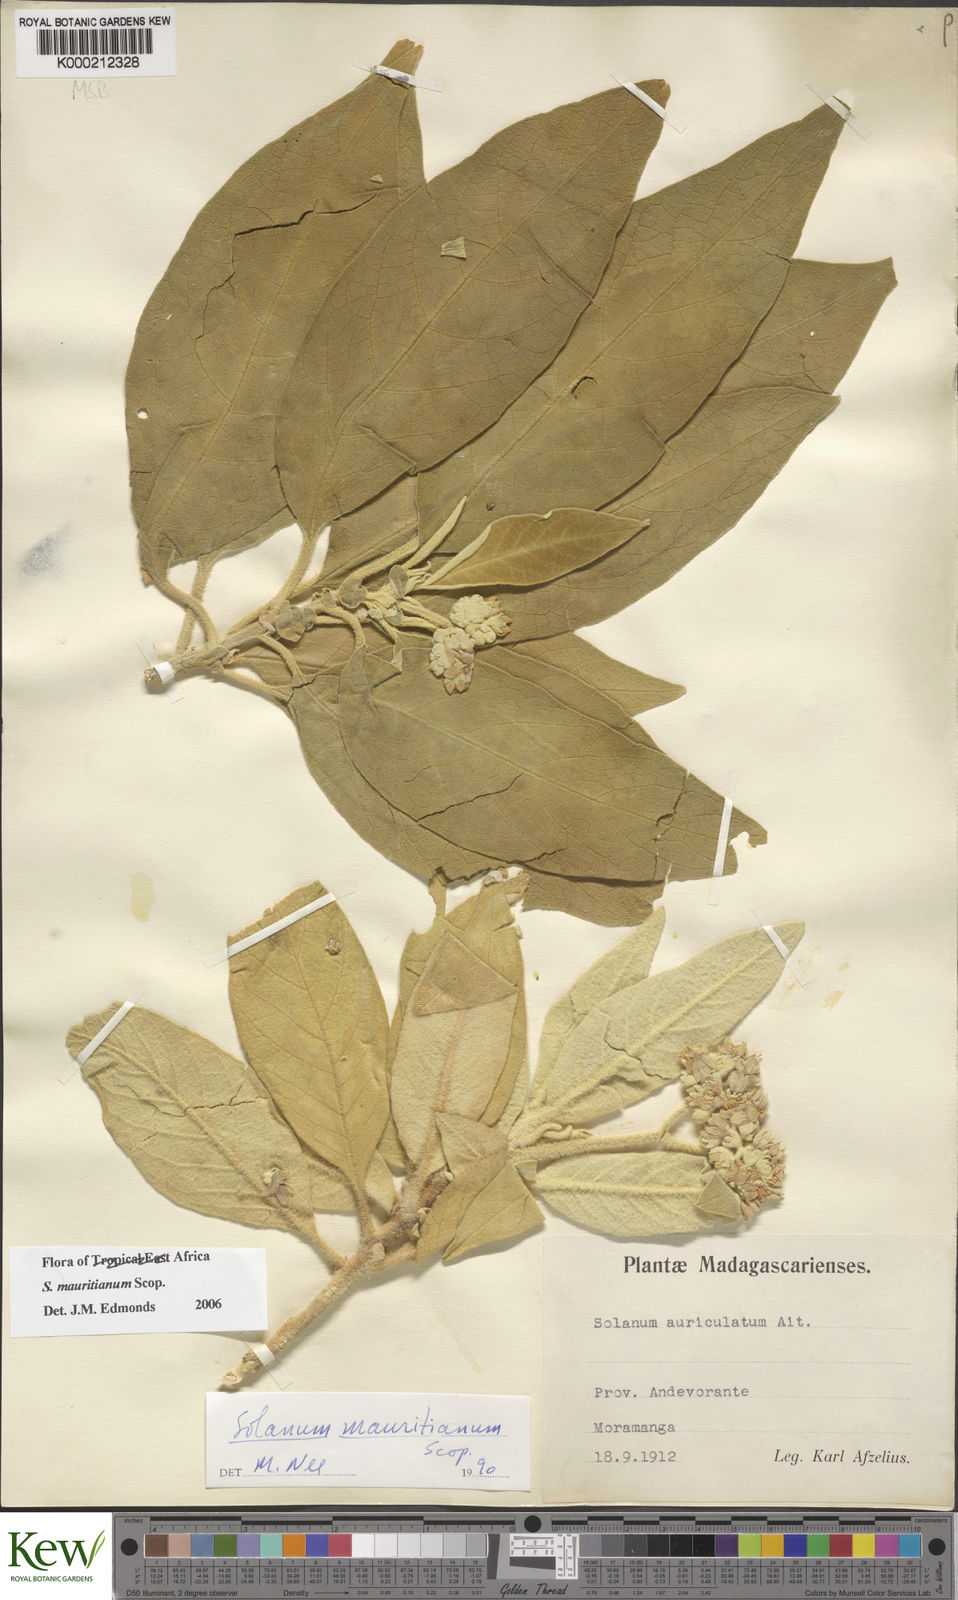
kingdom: Plantae
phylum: Tracheophyta
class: Magnoliopsida
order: Solanales
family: Solanaceae
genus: Solanum
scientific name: Solanum mauritianum
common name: Earleaf nightshade
